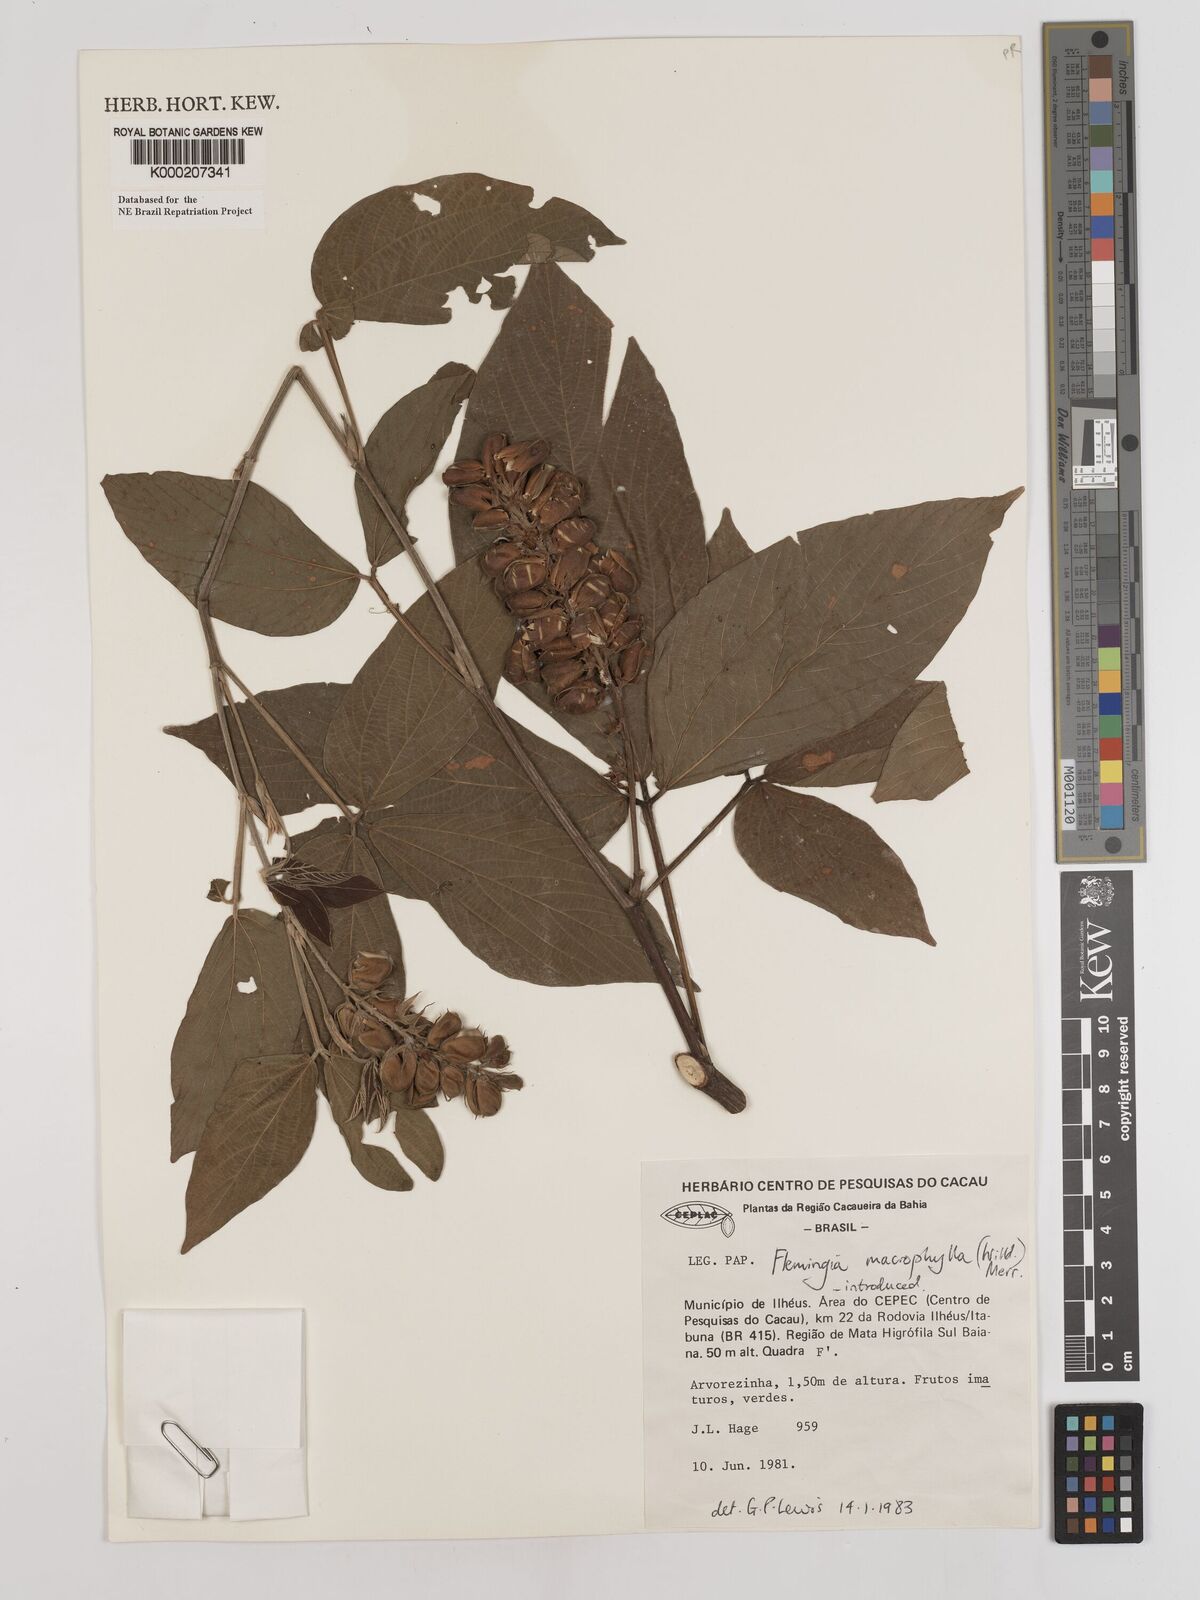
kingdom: Plantae
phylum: Tracheophyta
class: Magnoliopsida
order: Fabales
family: Fabaceae
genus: Flemingia
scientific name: Flemingia macrophylla
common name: Flemingia
